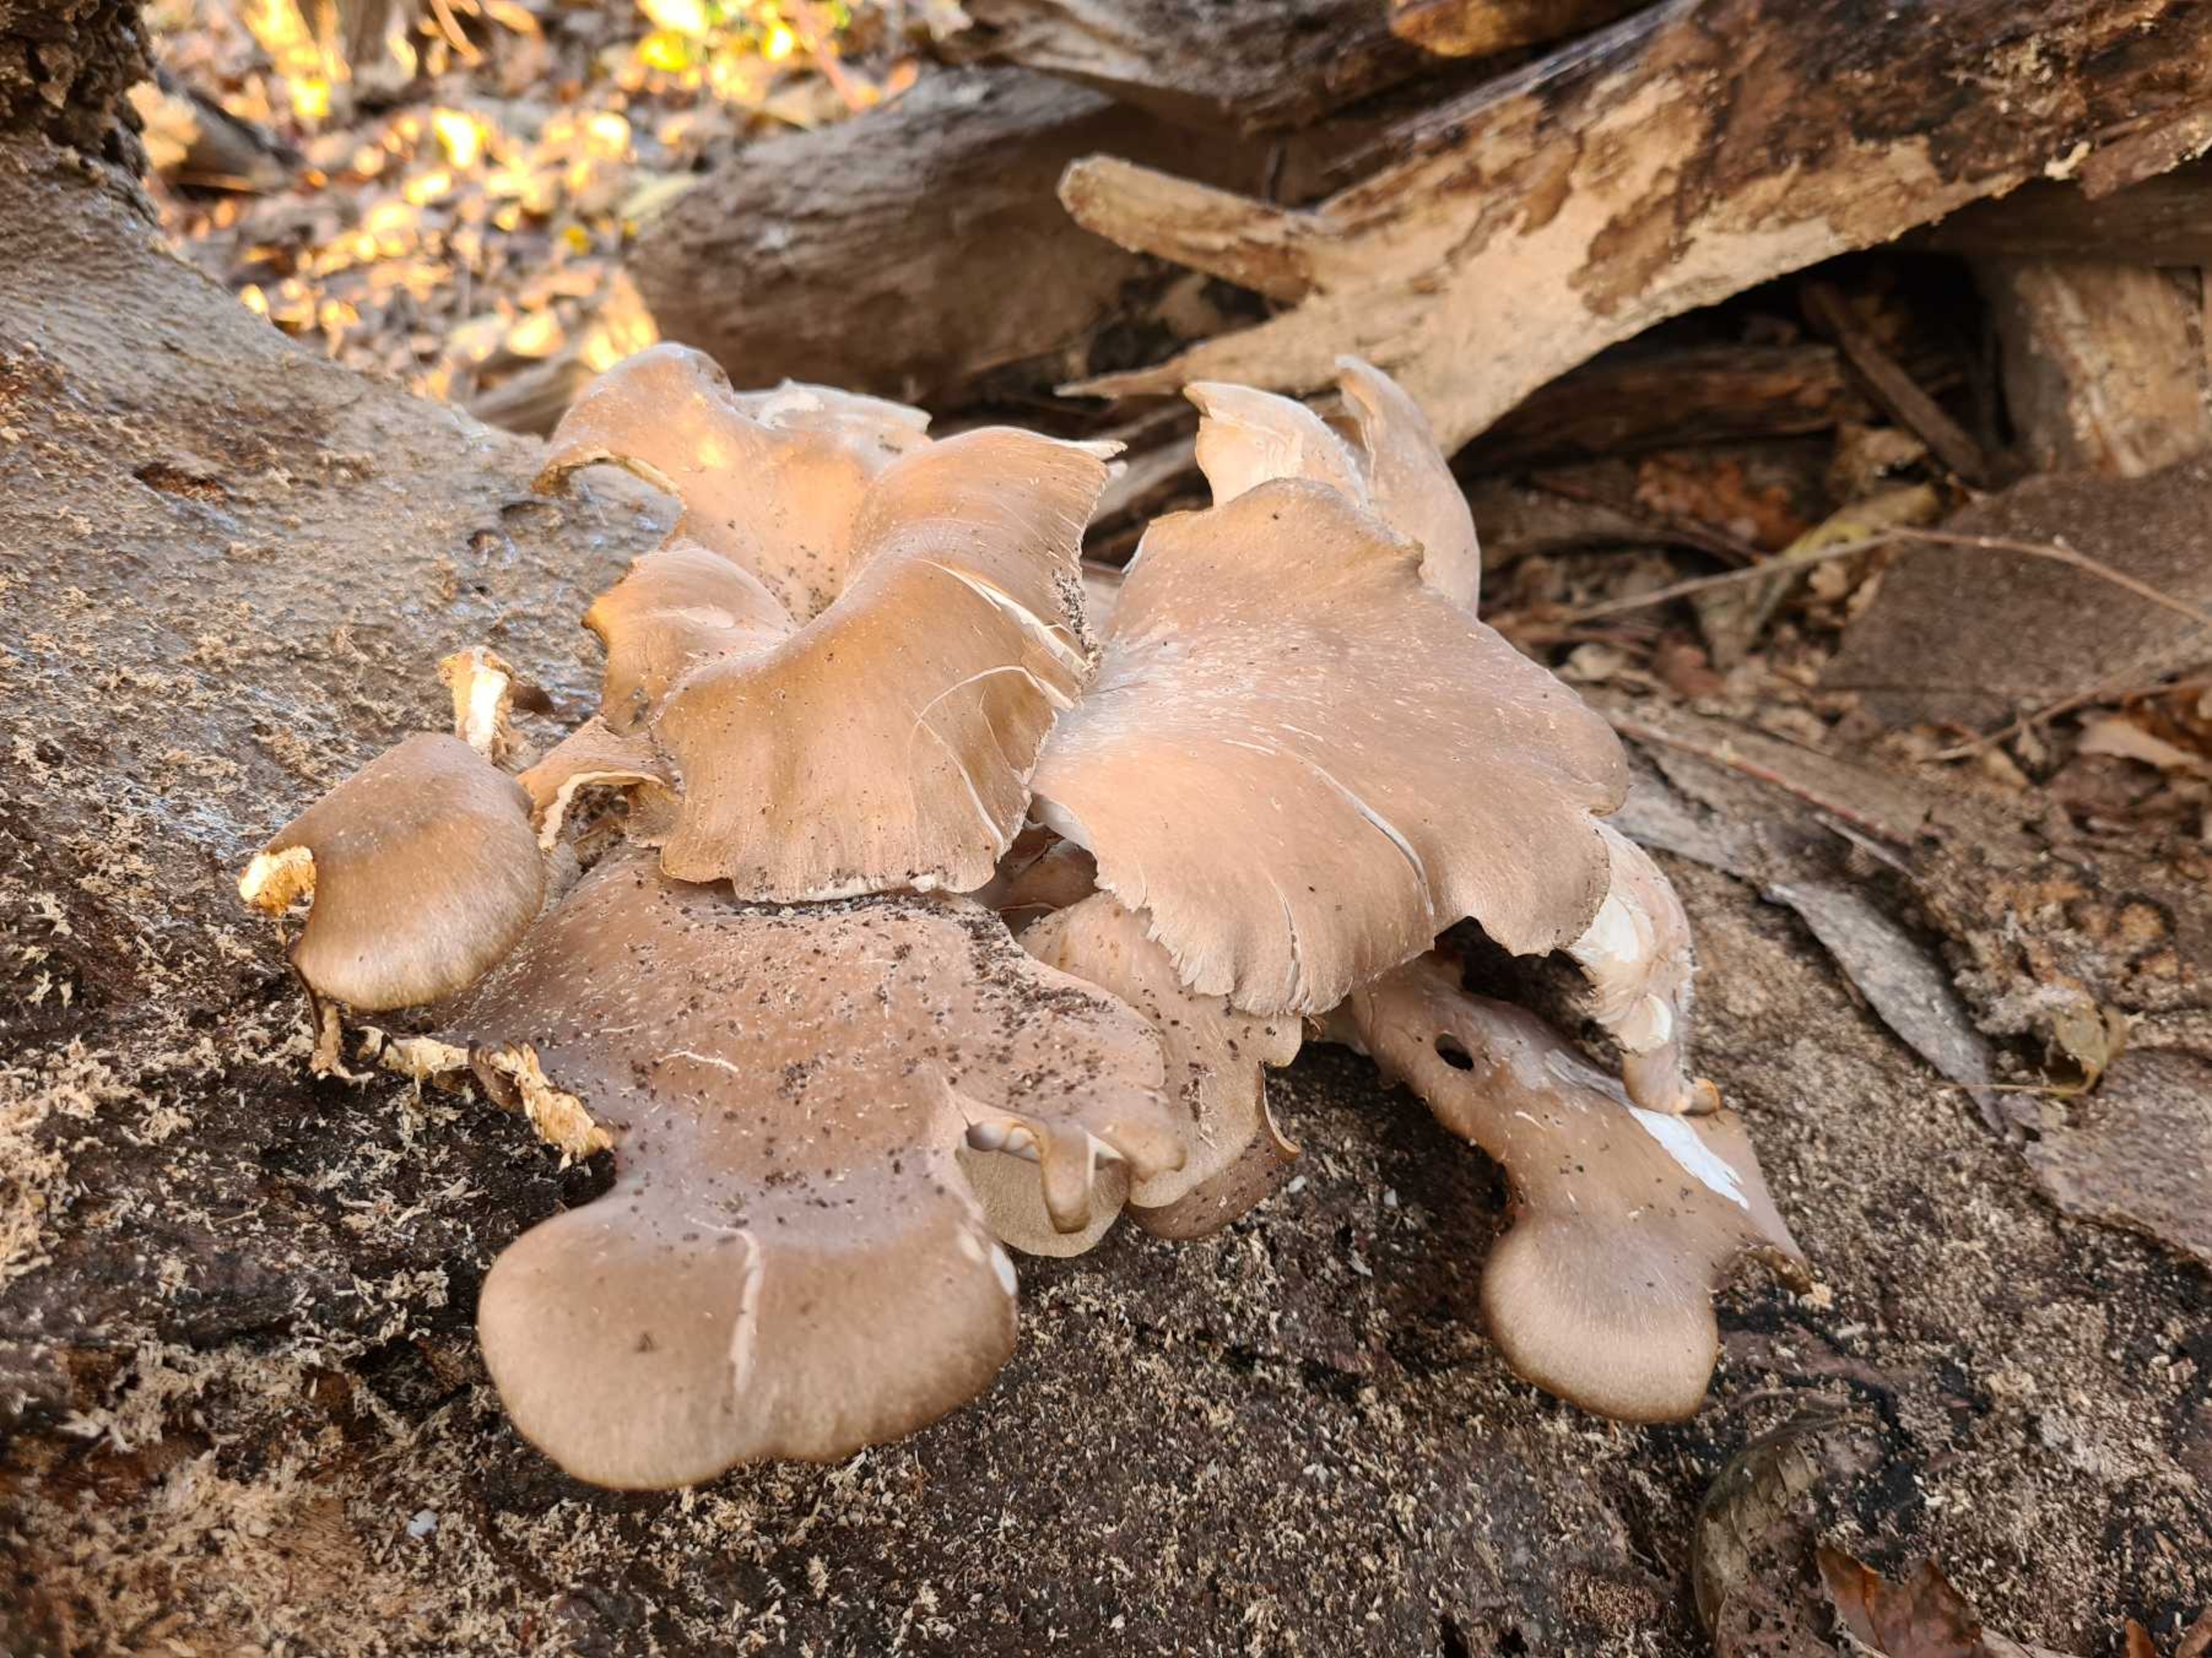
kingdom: Fungi
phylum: Basidiomycota
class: Agaricomycetes
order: Agaricales
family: Pleurotaceae
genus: Pleurotus
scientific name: Pleurotus
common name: Østershat
